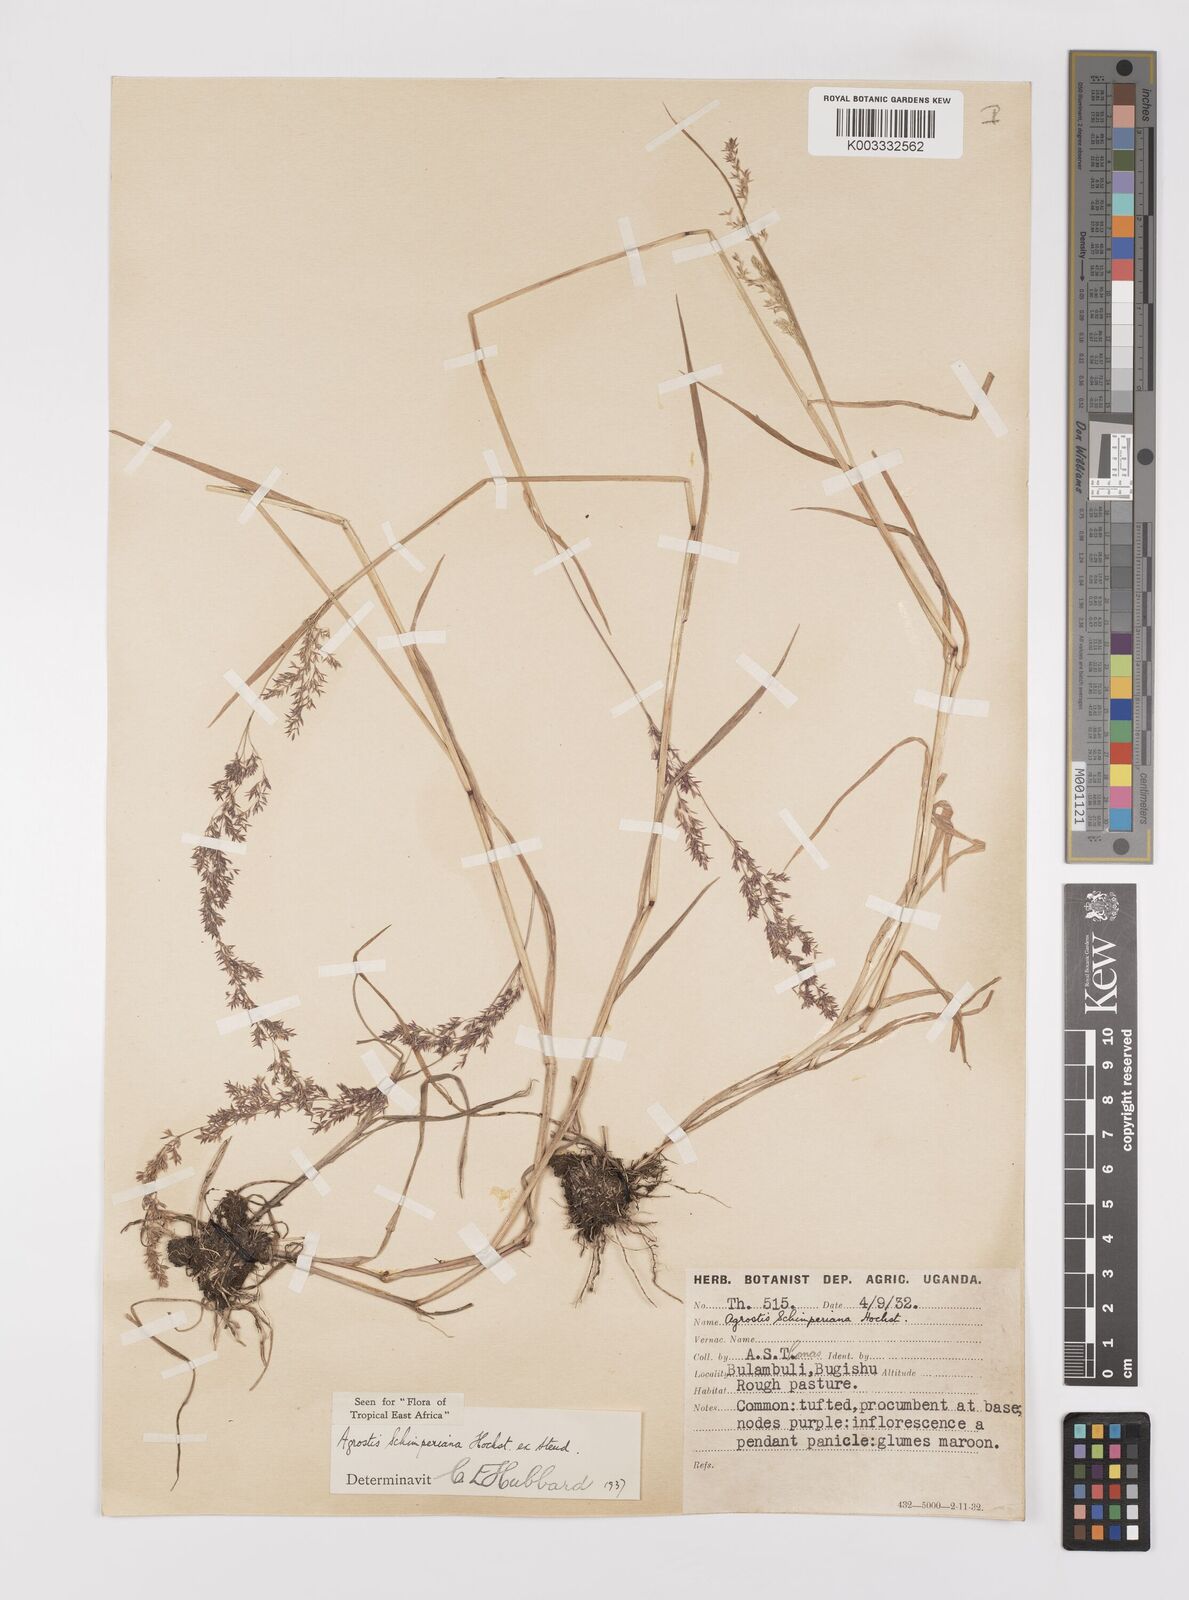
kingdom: Plantae
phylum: Tracheophyta
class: Liliopsida
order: Poales
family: Poaceae
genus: Polypogon
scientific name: Polypogon schimperianus
